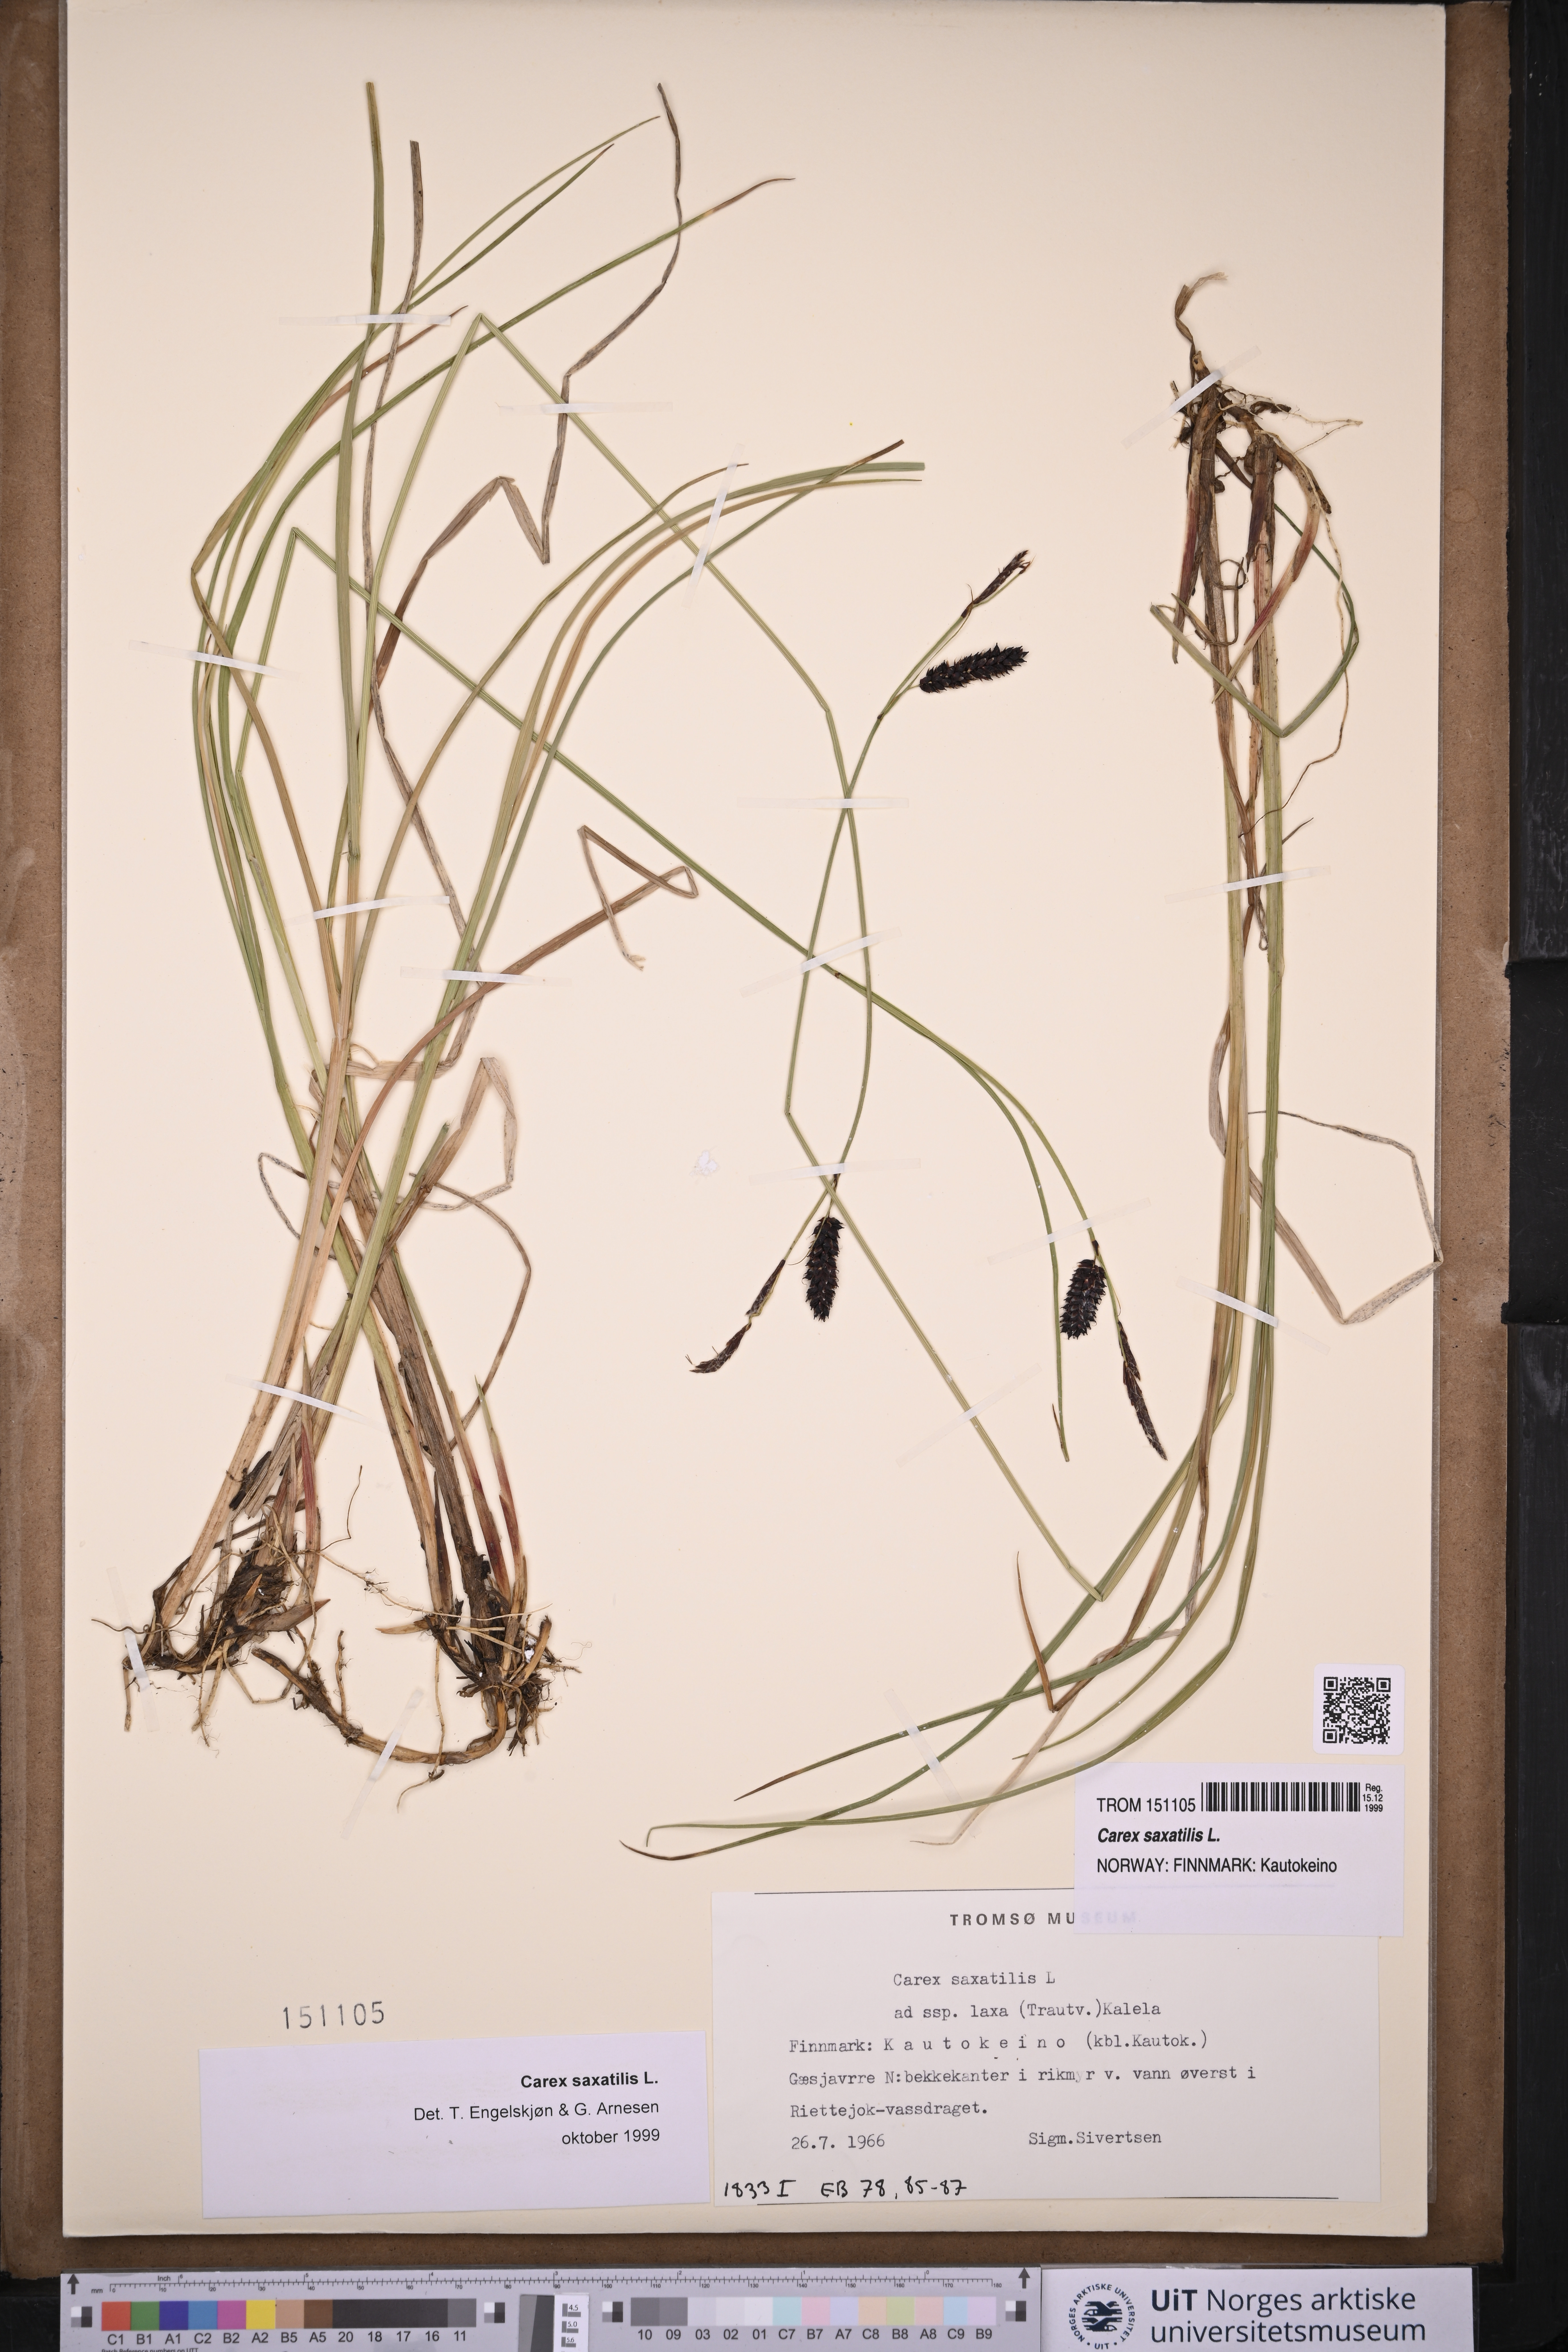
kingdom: Plantae
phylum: Tracheophyta
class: Liliopsida
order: Poales
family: Cyperaceae
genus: Carex
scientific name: Carex saxatilis
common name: Russet sedge
